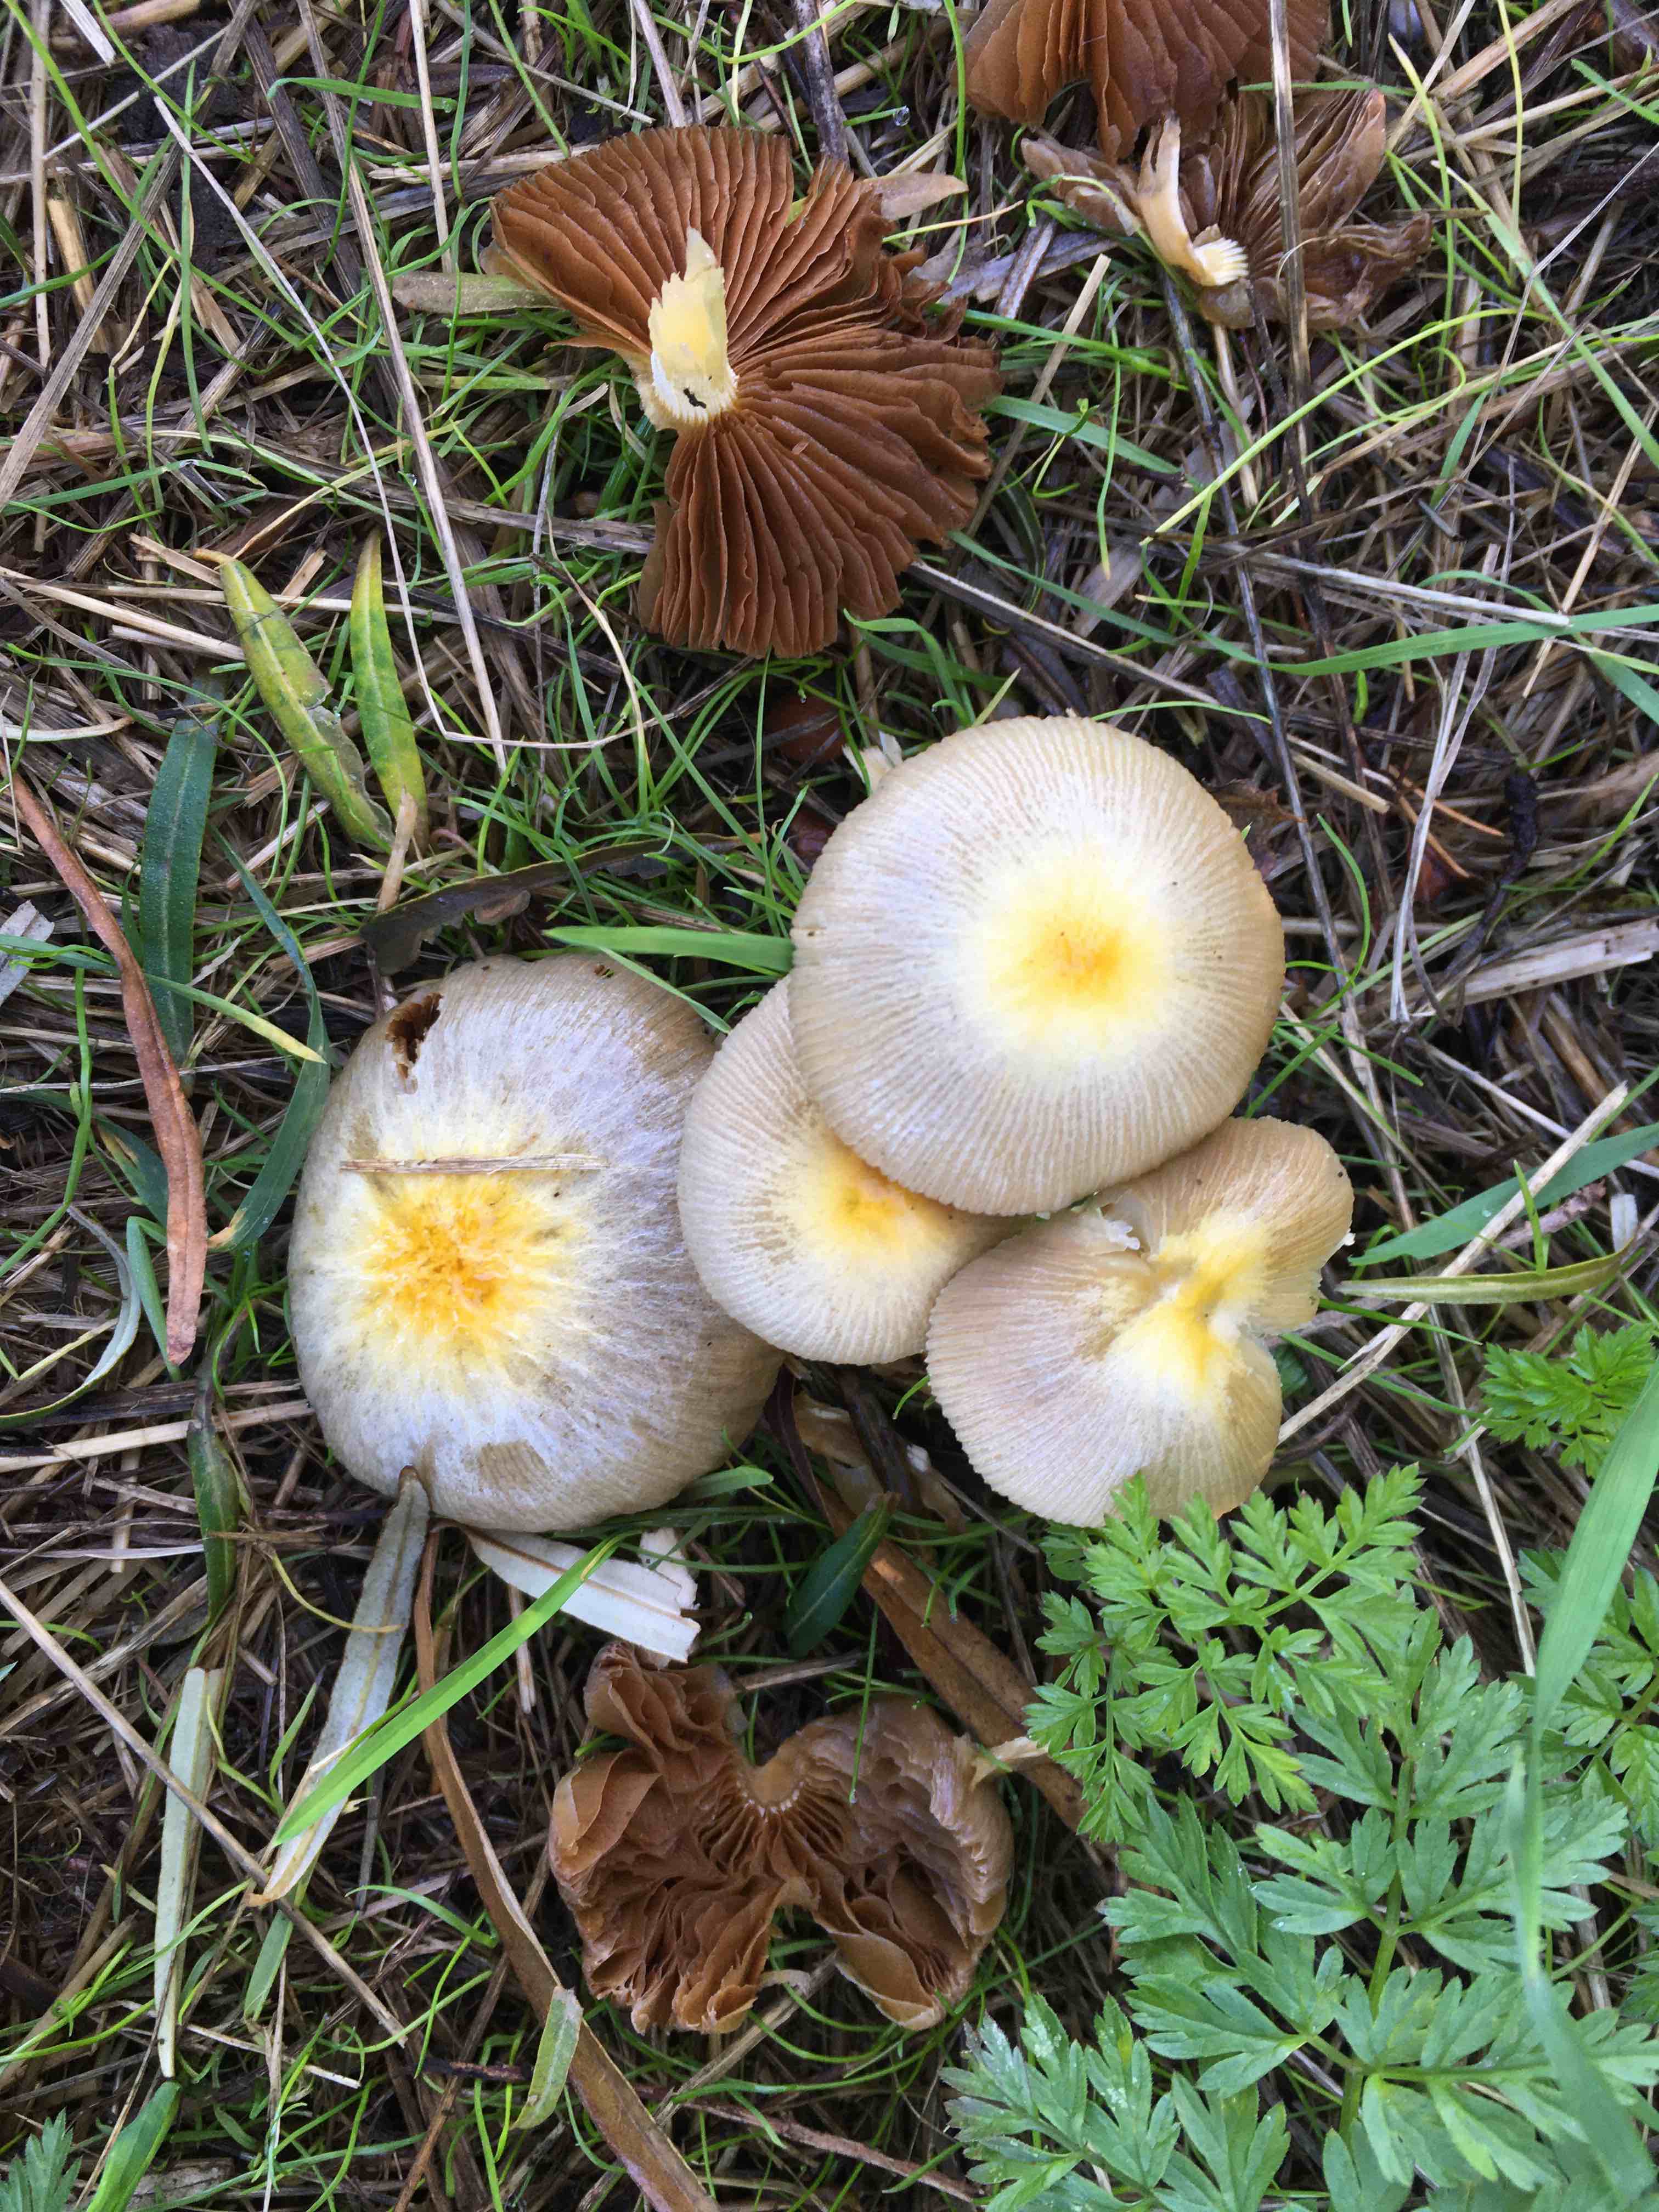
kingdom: Fungi
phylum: Basidiomycota
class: Agaricomycetes
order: Agaricales
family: Bolbitiaceae
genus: Bolbitius
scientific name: Bolbitius titubans
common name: almindelig gulhat
